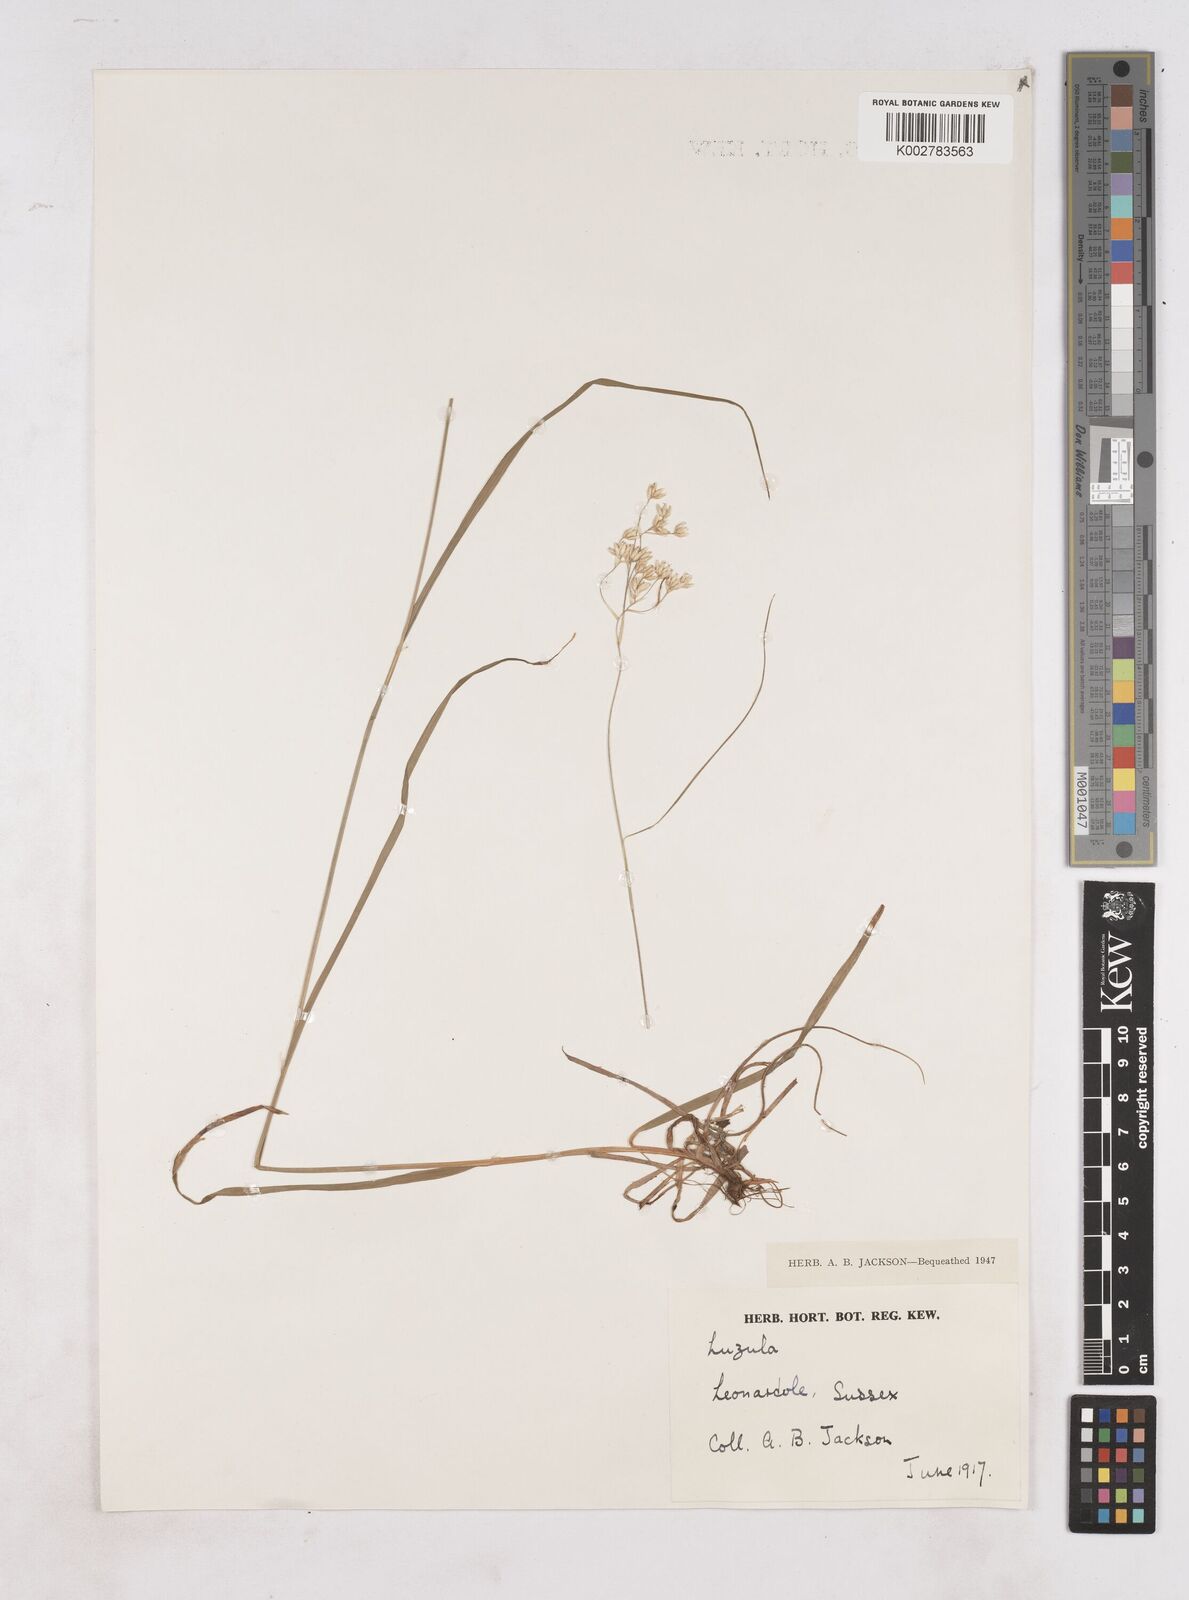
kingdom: Plantae
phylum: Tracheophyta
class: Liliopsida
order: Poales
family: Juncaceae
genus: Luzula
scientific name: Luzula
